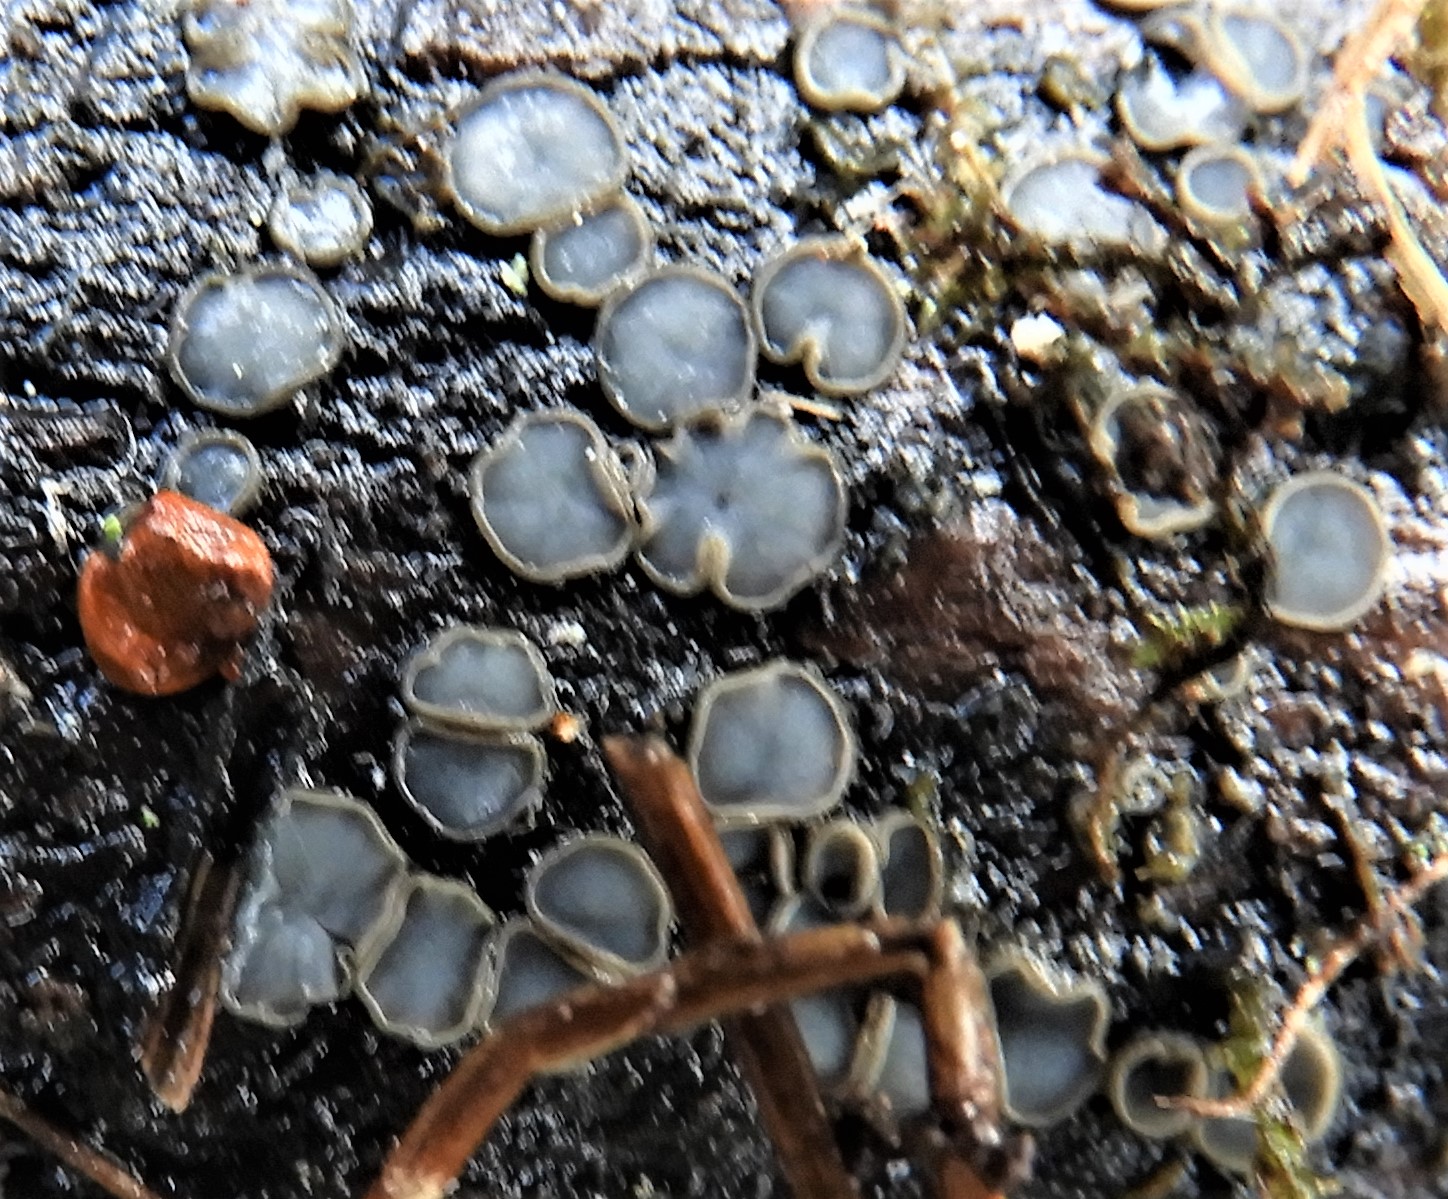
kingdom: Fungi
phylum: Ascomycota
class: Leotiomycetes
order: Helotiales
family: Mollisiaceae
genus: Mollisia
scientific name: Mollisia
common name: gråskive
